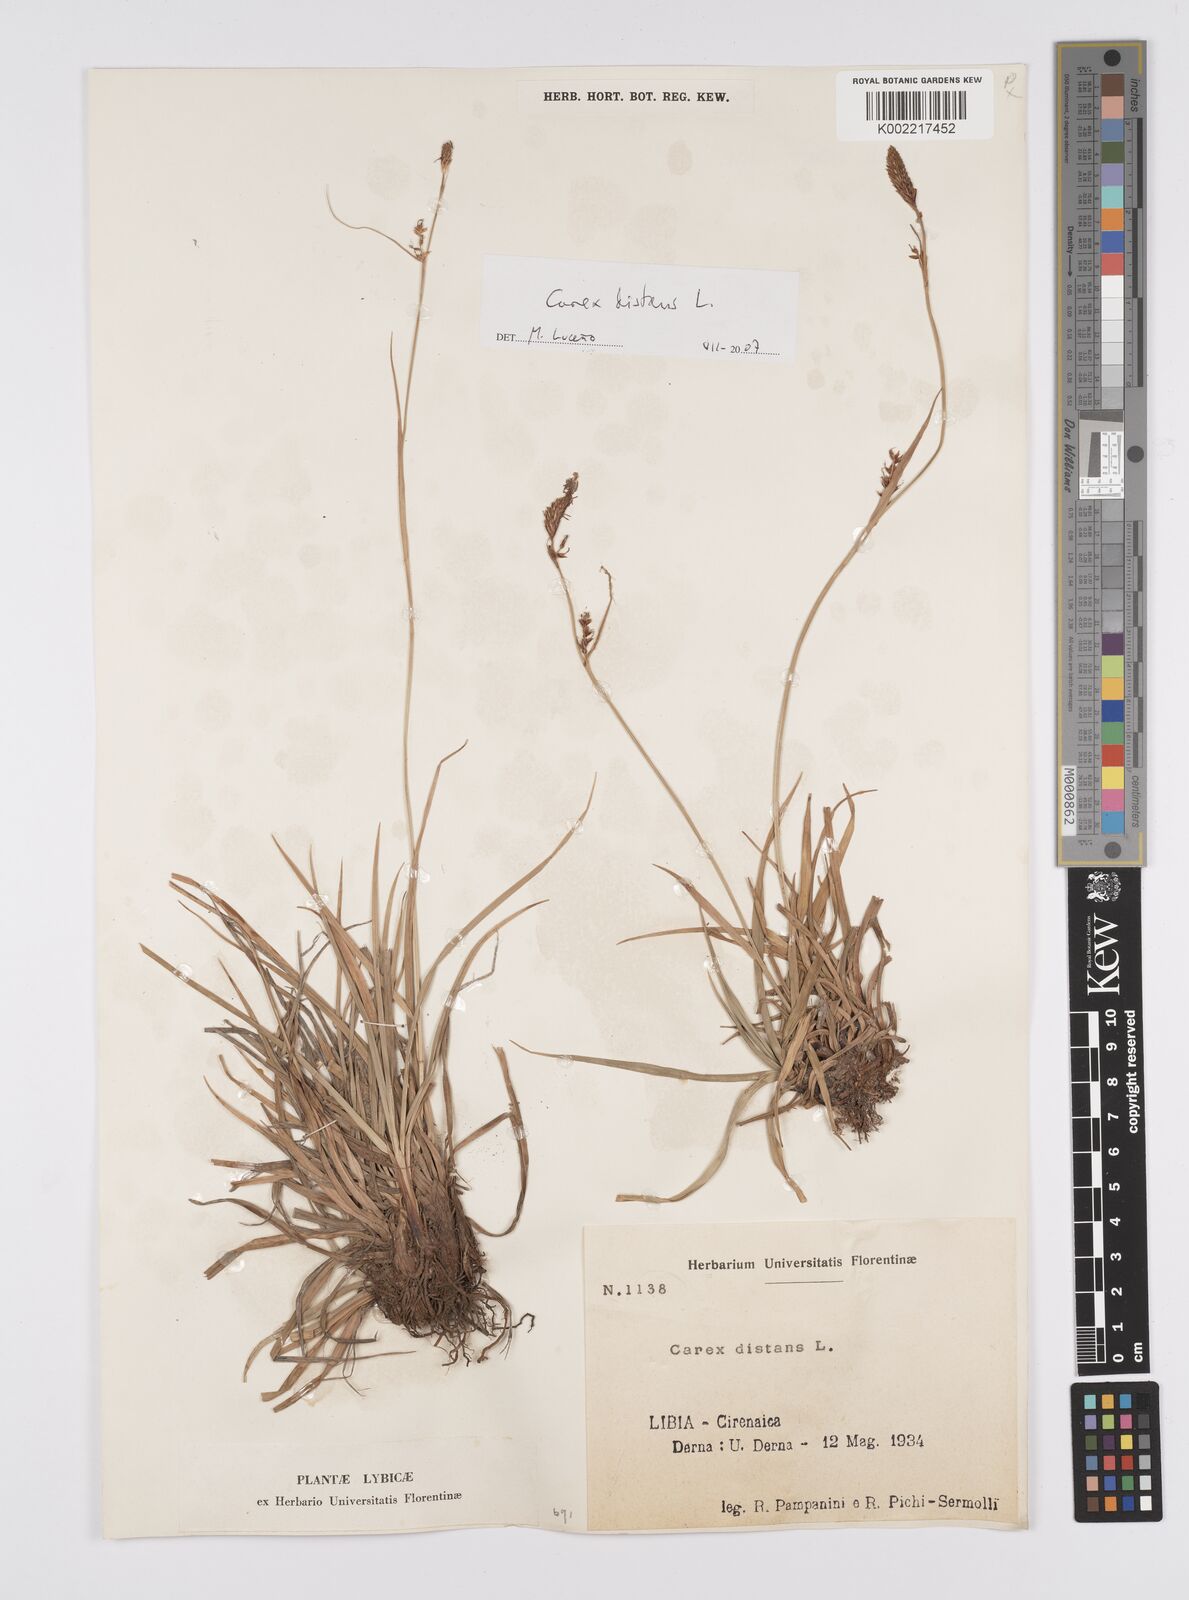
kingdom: Plantae
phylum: Tracheophyta
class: Liliopsida
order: Poales
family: Cyperaceae
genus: Carex
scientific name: Carex distans
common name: Distant sedge
